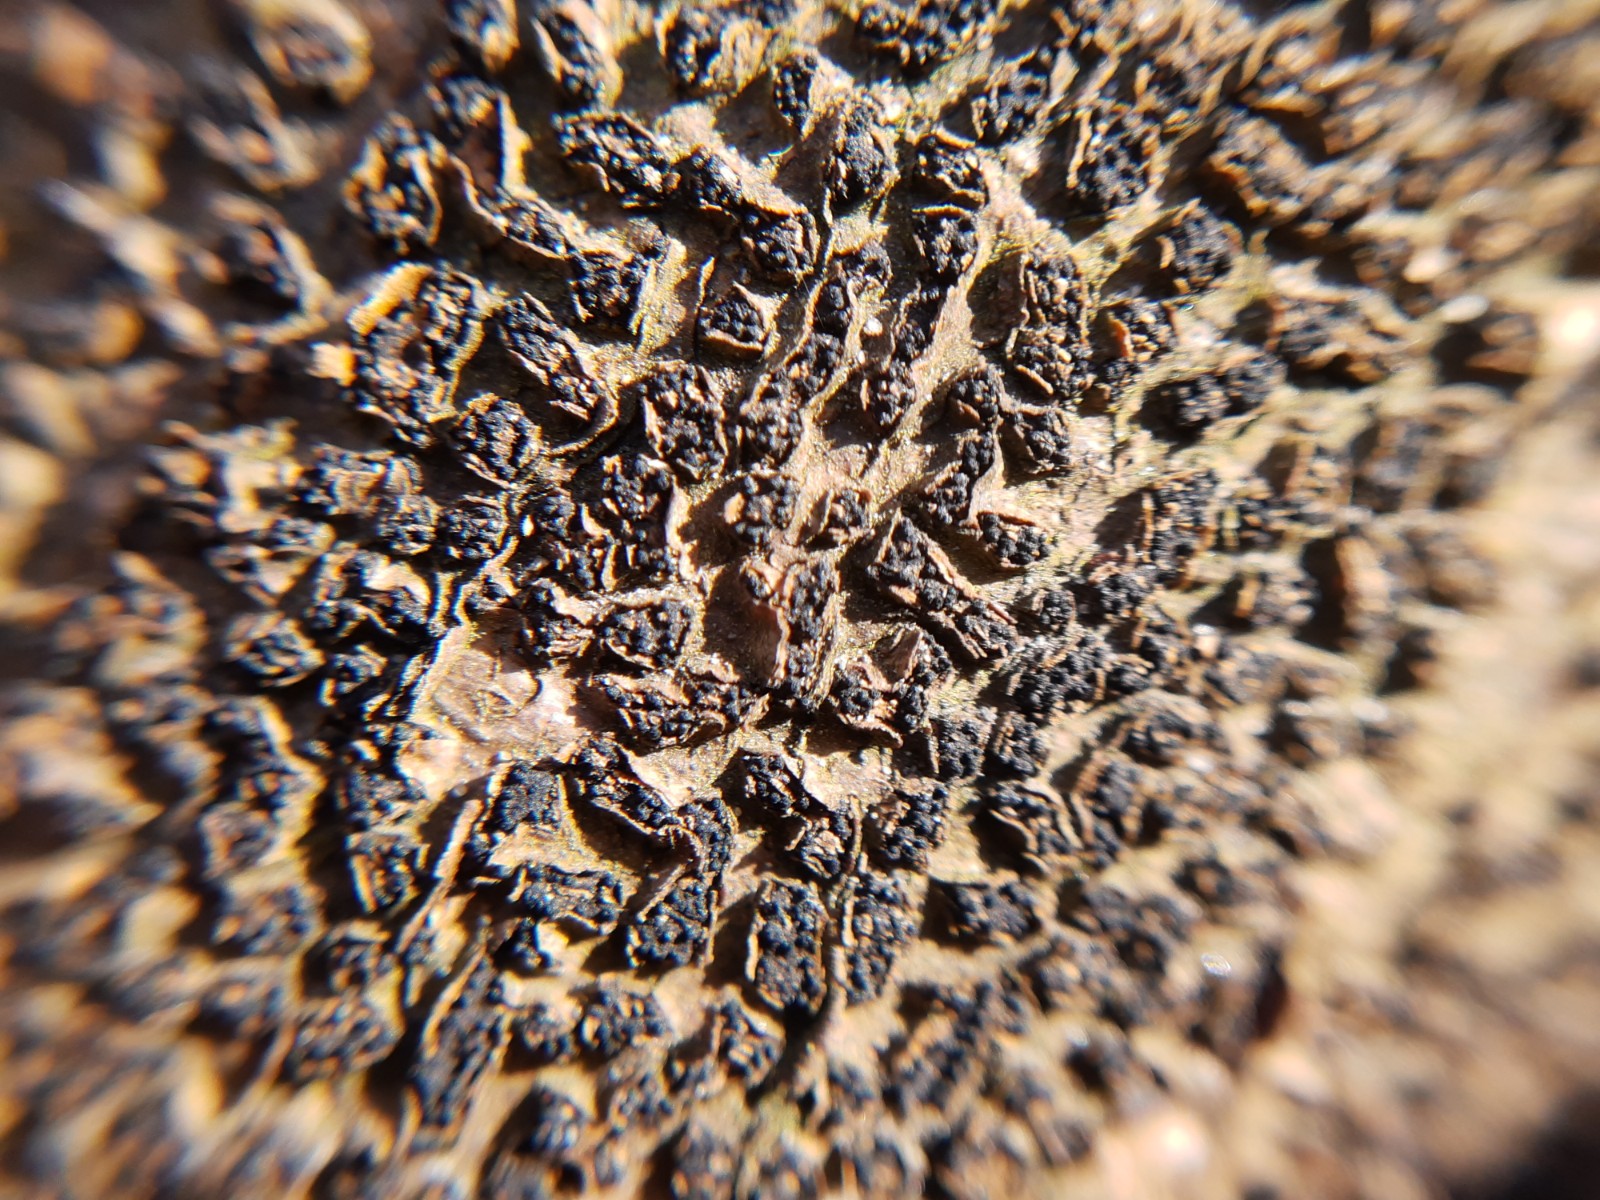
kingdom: Fungi
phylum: Ascomycota
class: Sordariomycetes
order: Xylariales
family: Melogrammataceae
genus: Melogramma
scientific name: Melogramma spiniferum
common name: bøgefod-kulhals
